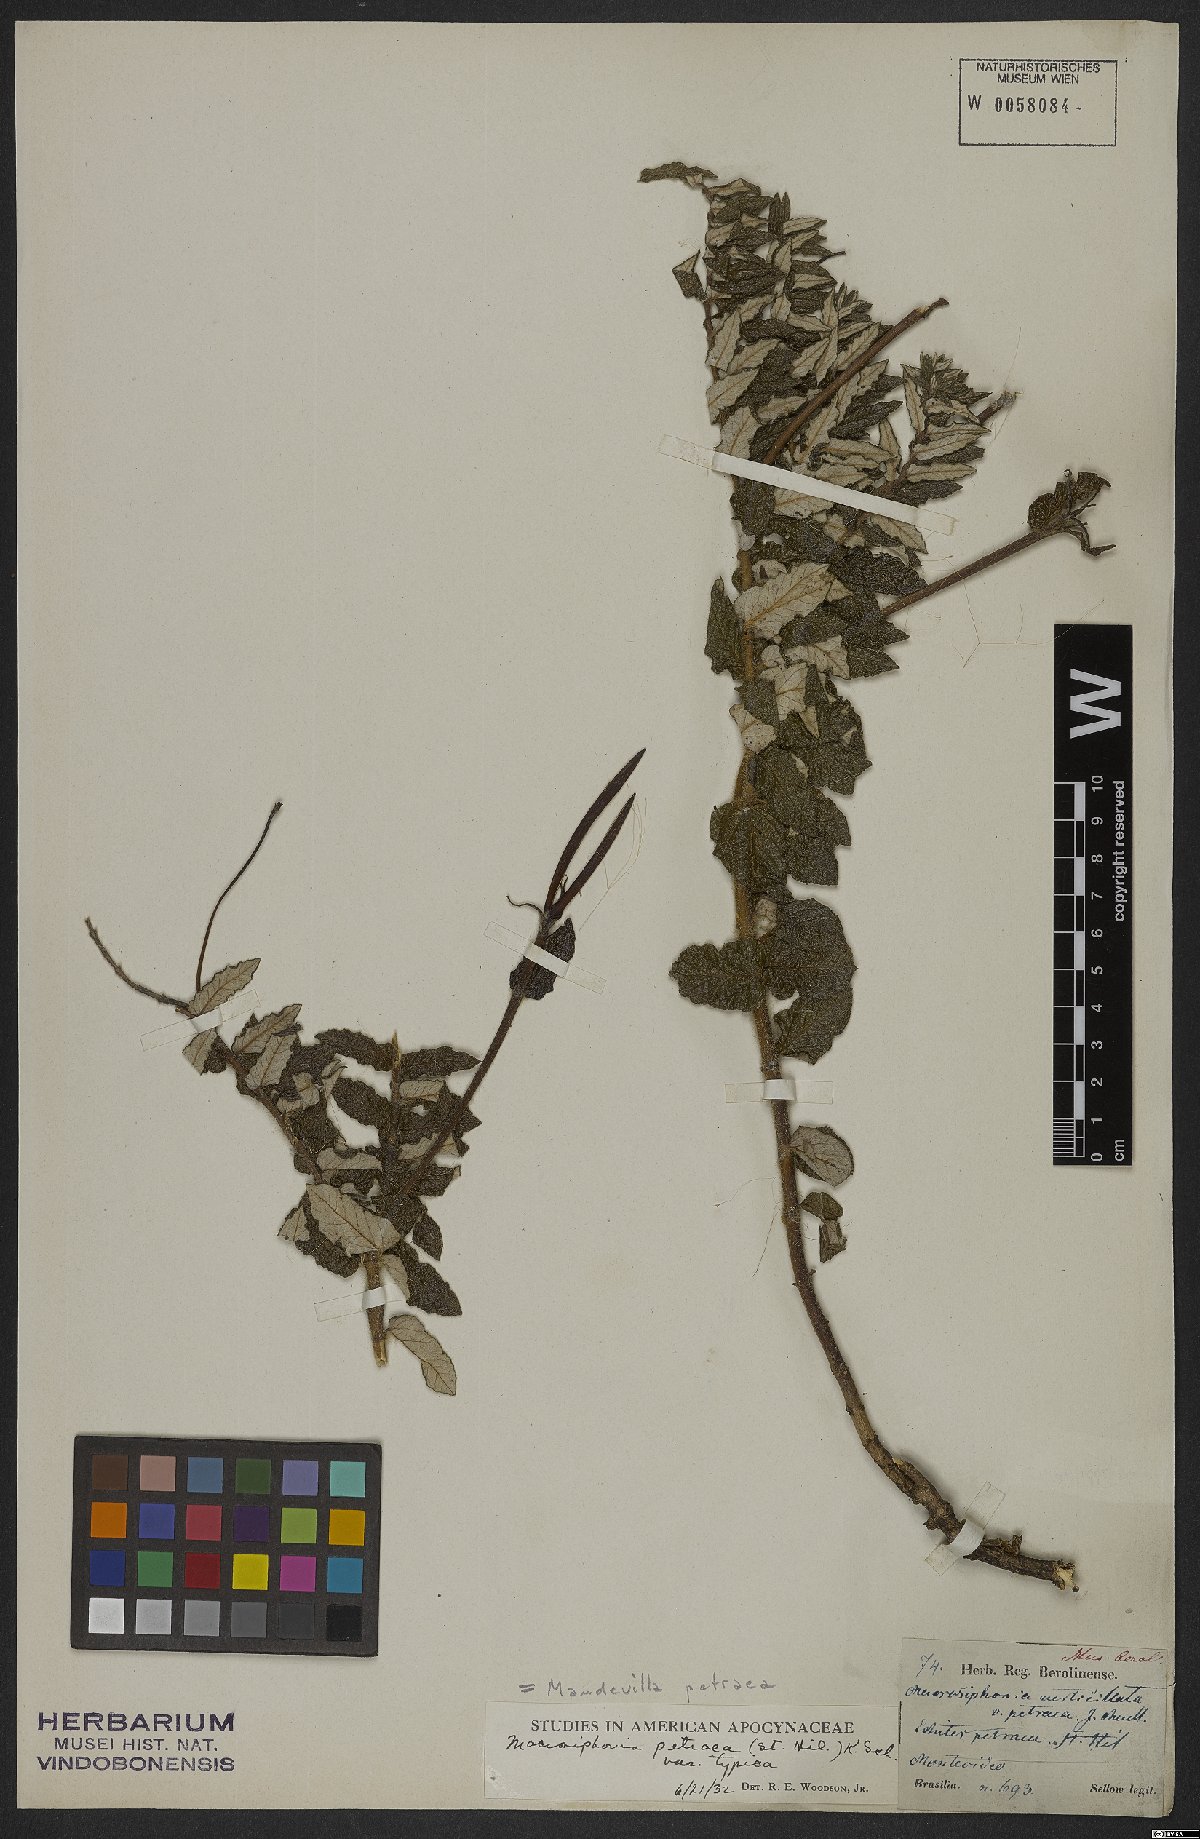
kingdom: Plantae
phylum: Tracheophyta
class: Magnoliopsida
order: Gentianales
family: Apocynaceae
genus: Mandevilla
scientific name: Mandevilla petraea
